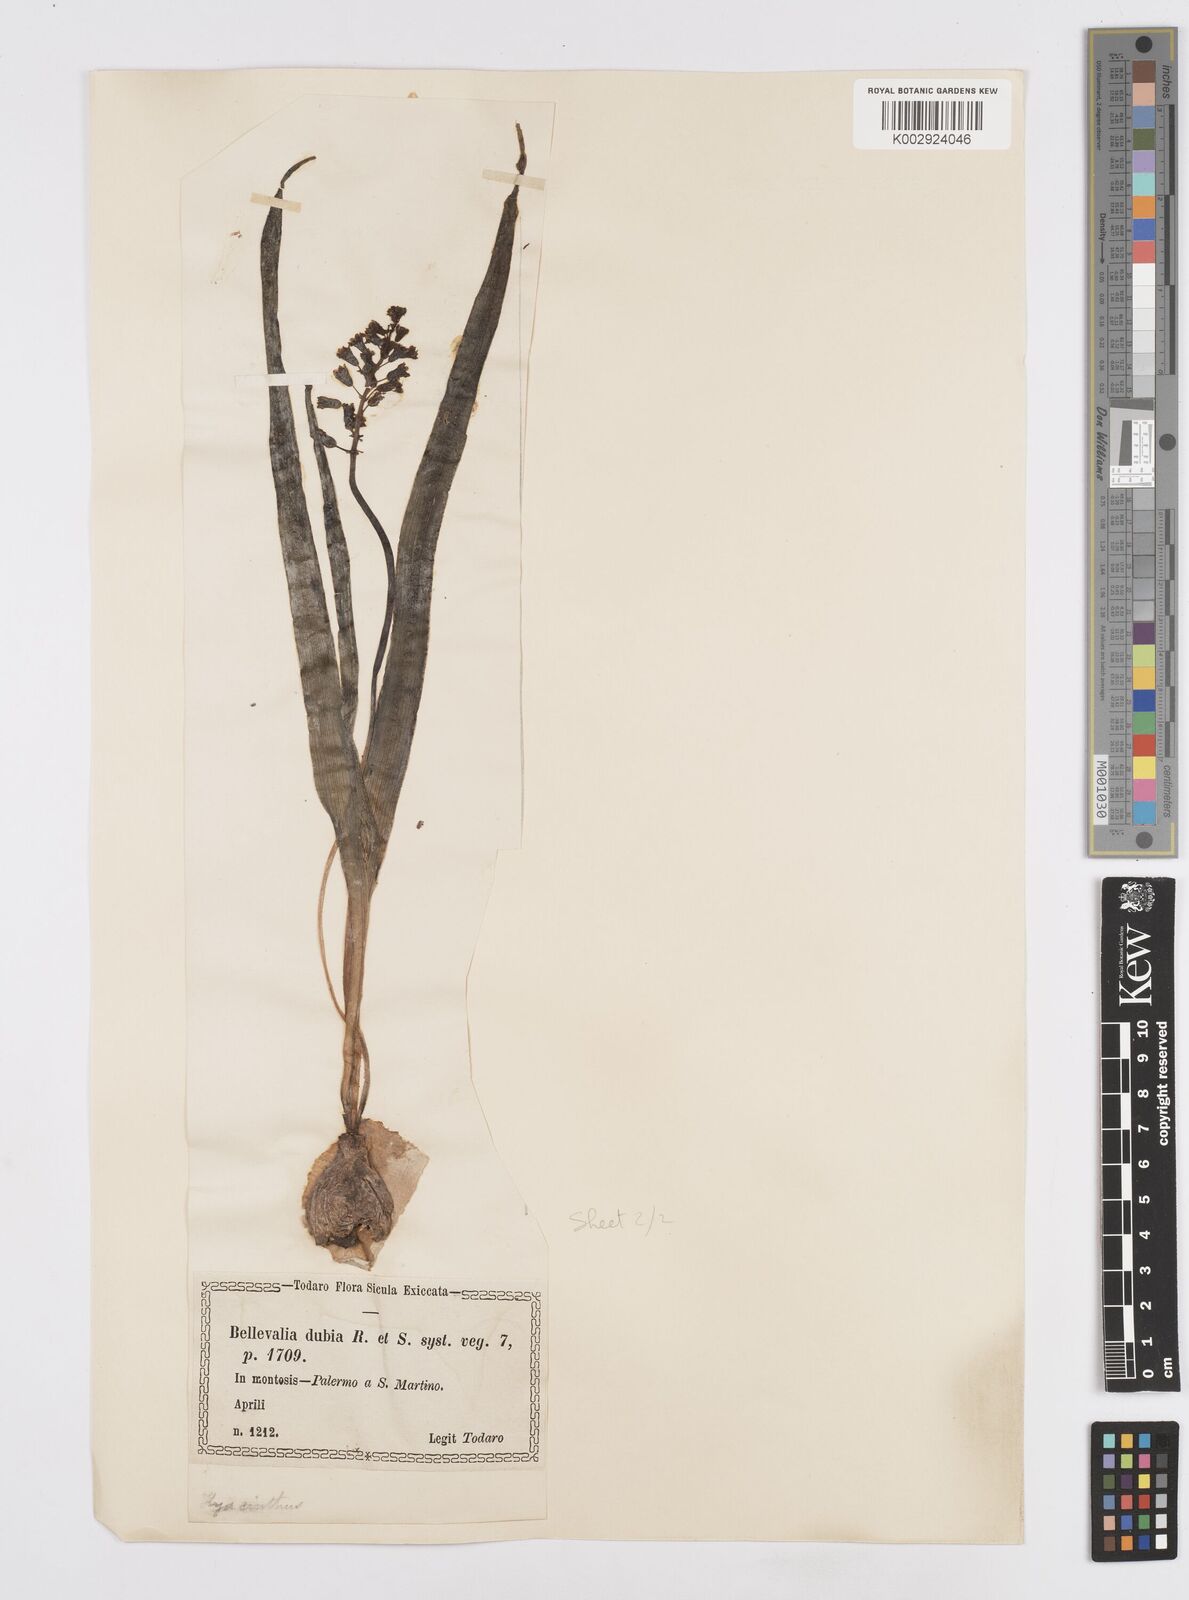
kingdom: Plantae
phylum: Tracheophyta
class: Liliopsida
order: Asparagales
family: Asparagaceae
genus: Bellevalia
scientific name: Bellevalia dubia
